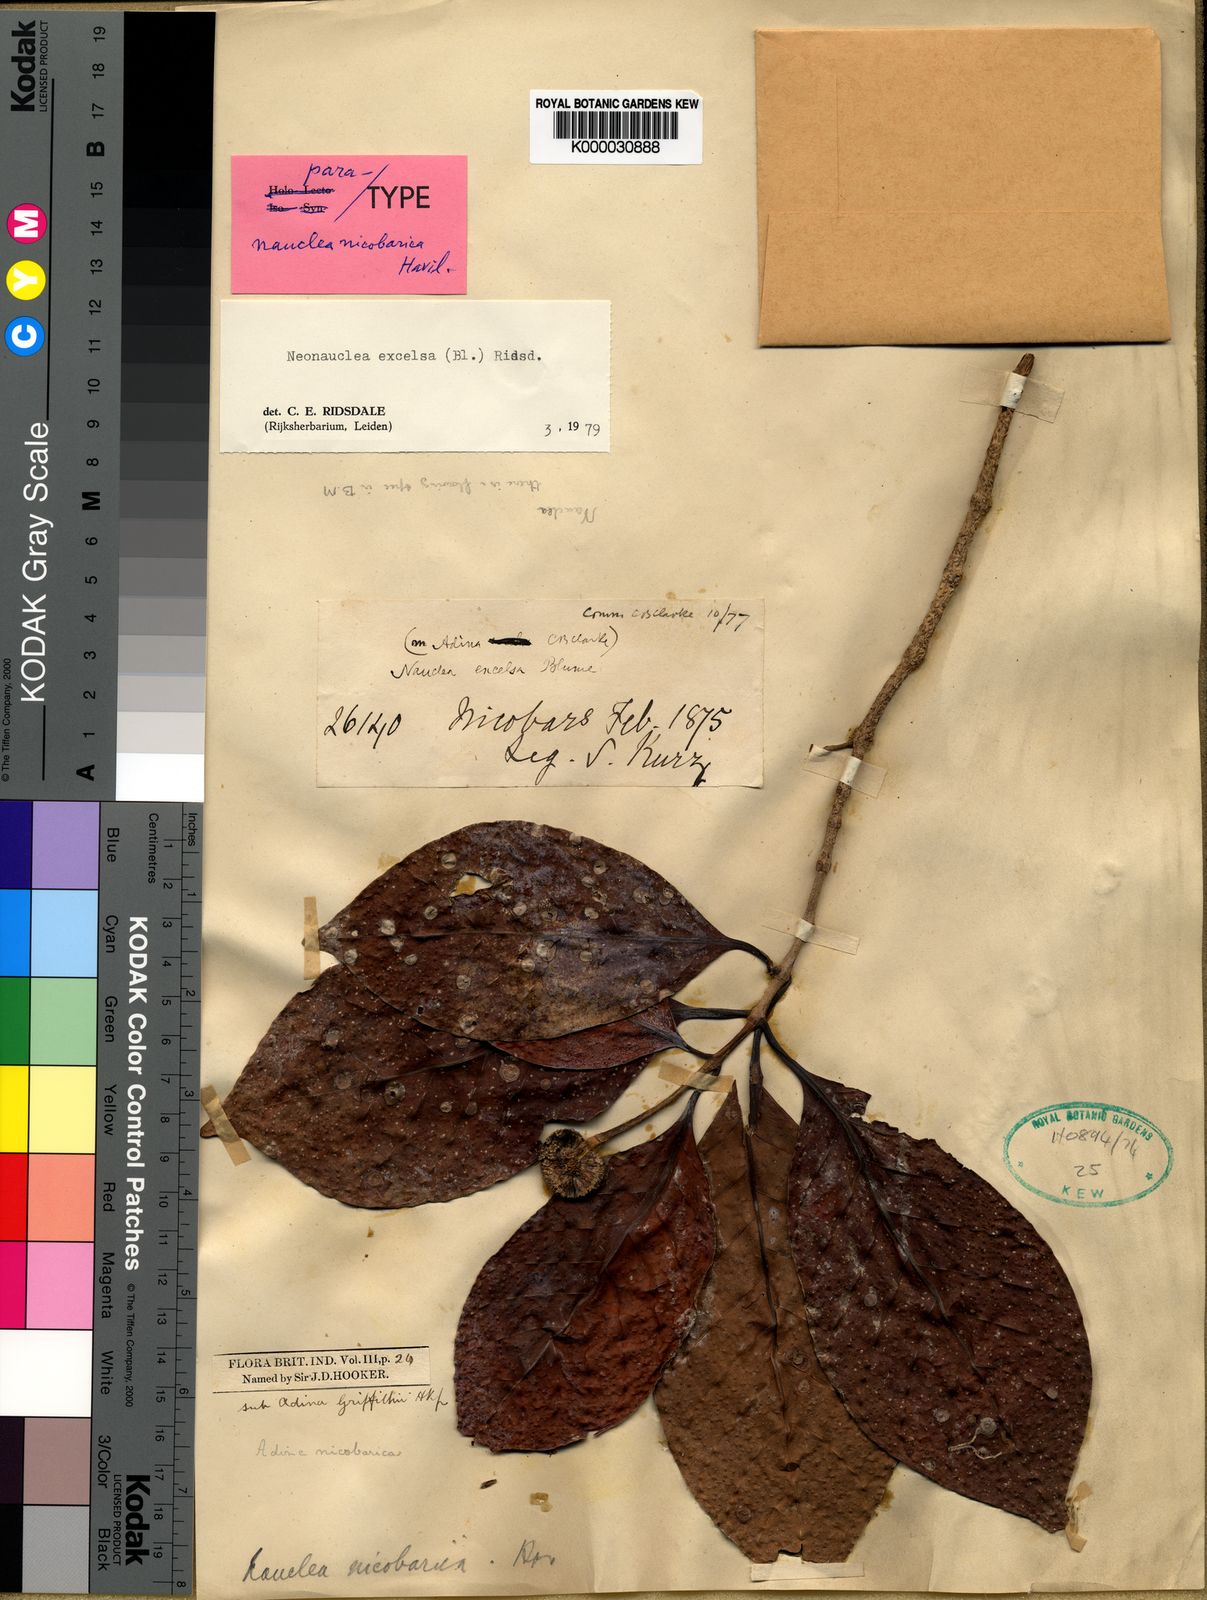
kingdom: Plantae
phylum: Tracheophyta
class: Magnoliopsida
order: Gentianales
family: Rubiaceae
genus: Neonauclea
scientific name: Neonauclea
